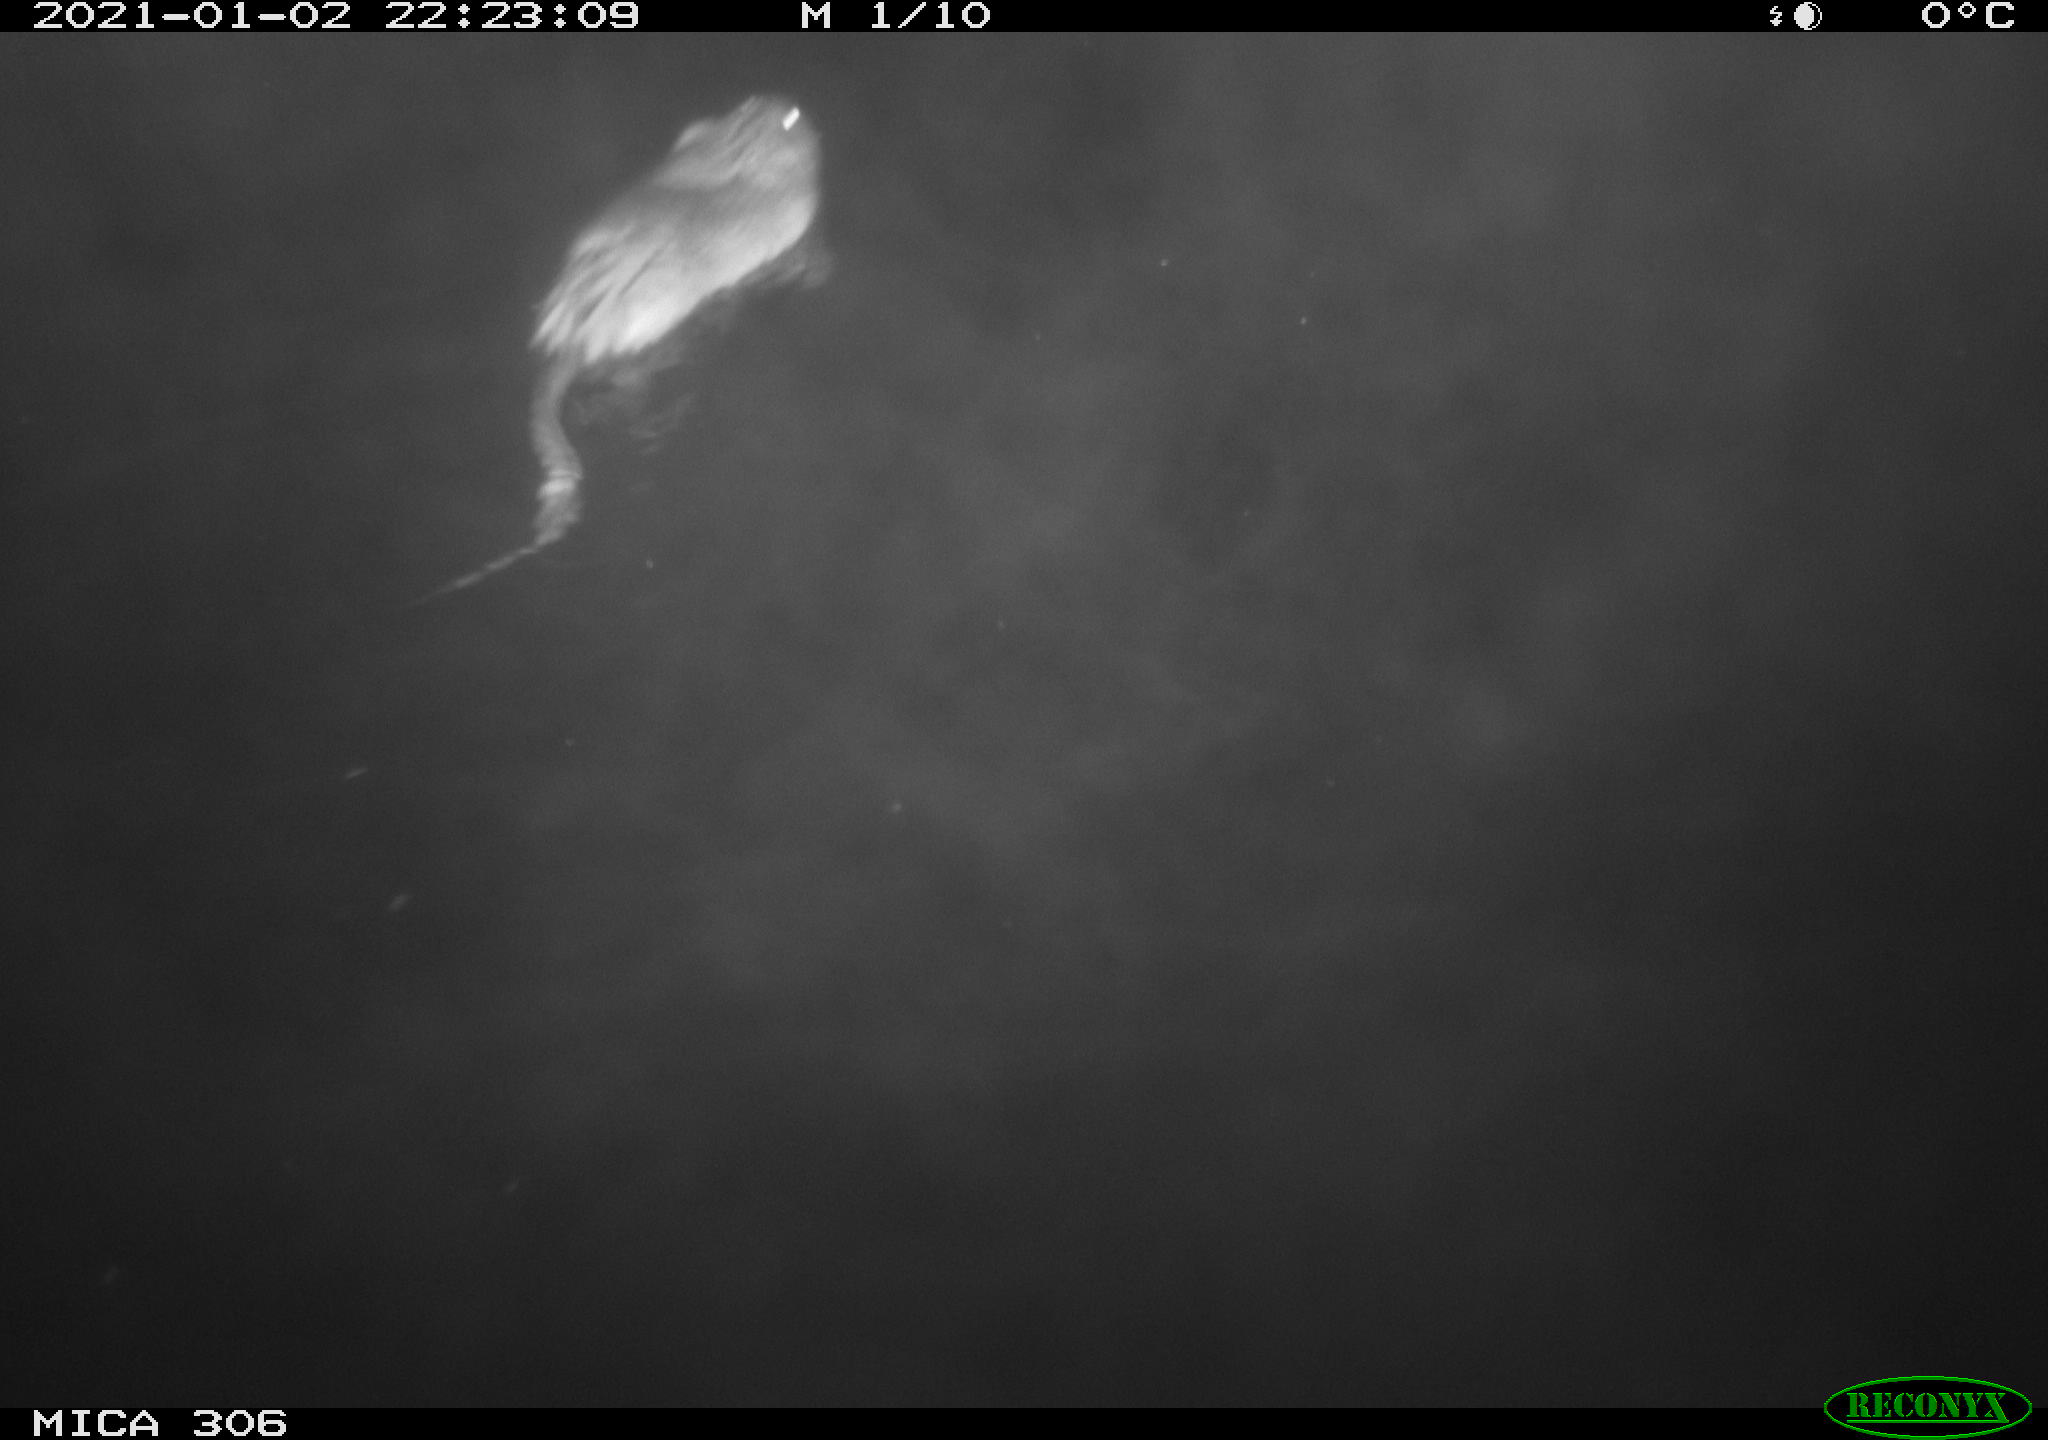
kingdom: Animalia
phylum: Chordata
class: Mammalia
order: Rodentia
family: Cricetidae
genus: Ondatra
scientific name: Ondatra zibethicus
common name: Muskrat
